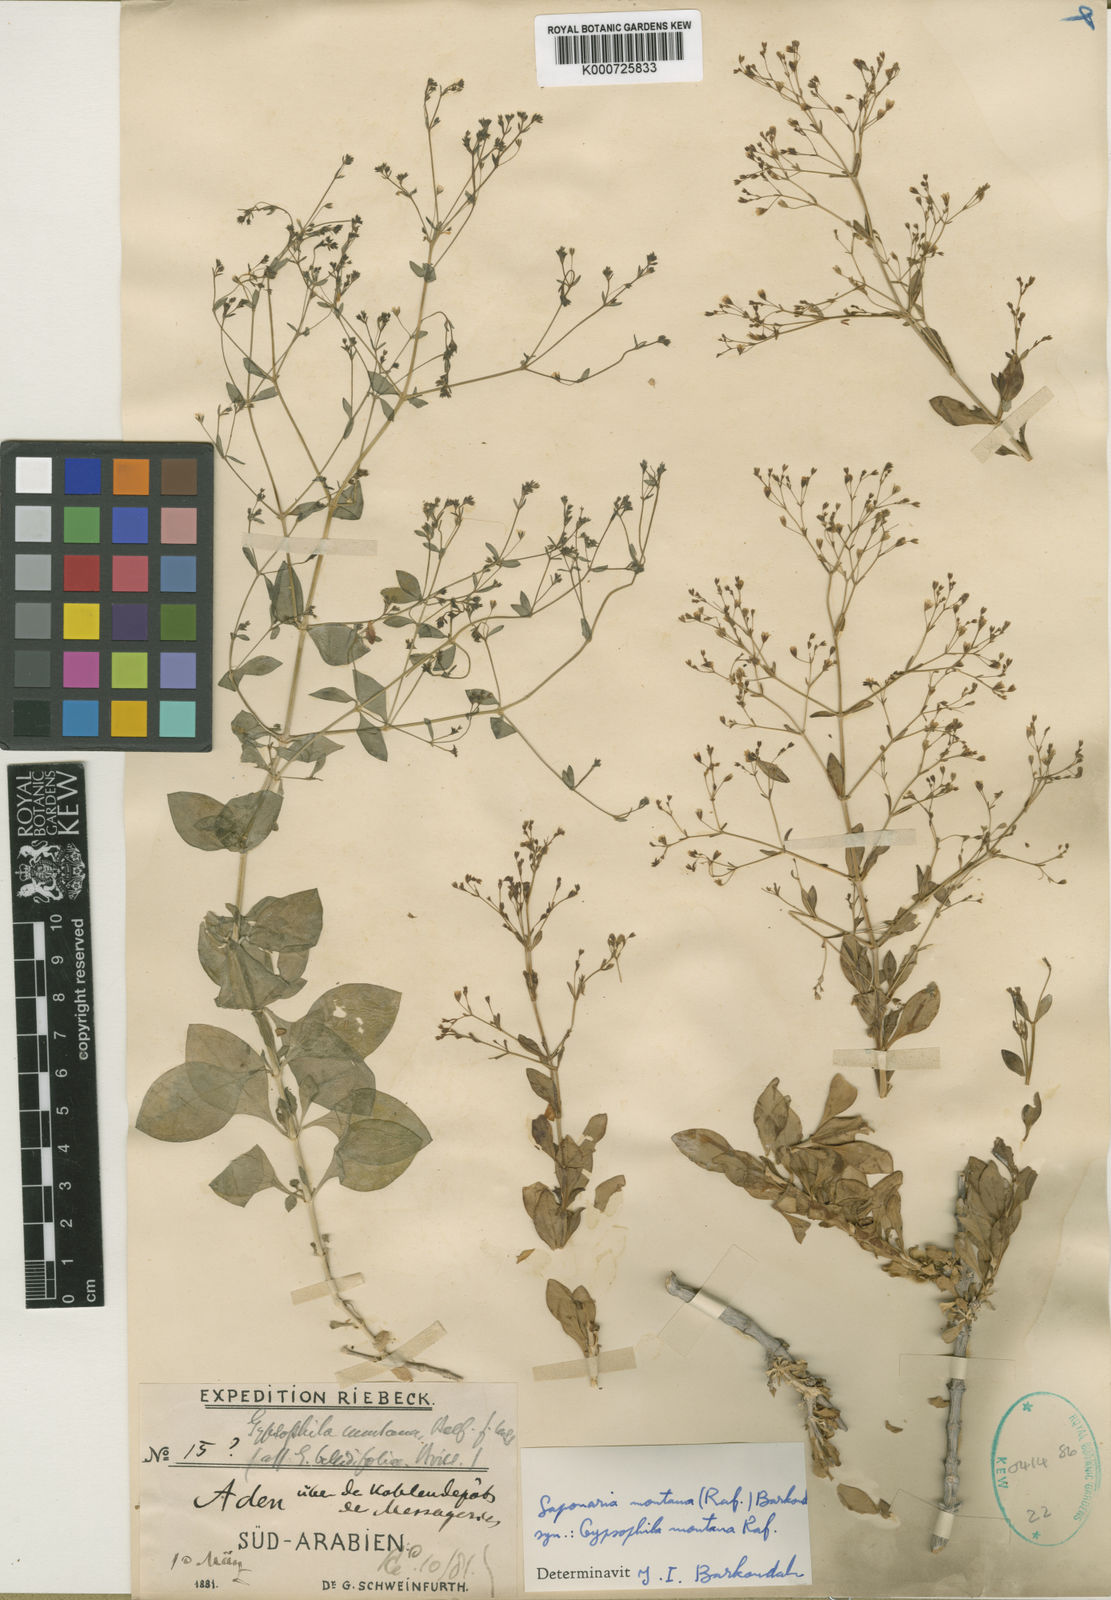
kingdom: Plantae
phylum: Tracheophyta
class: Magnoliopsida
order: Caryophyllales
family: Caryophyllaceae
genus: Petroana
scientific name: Petroana montana
